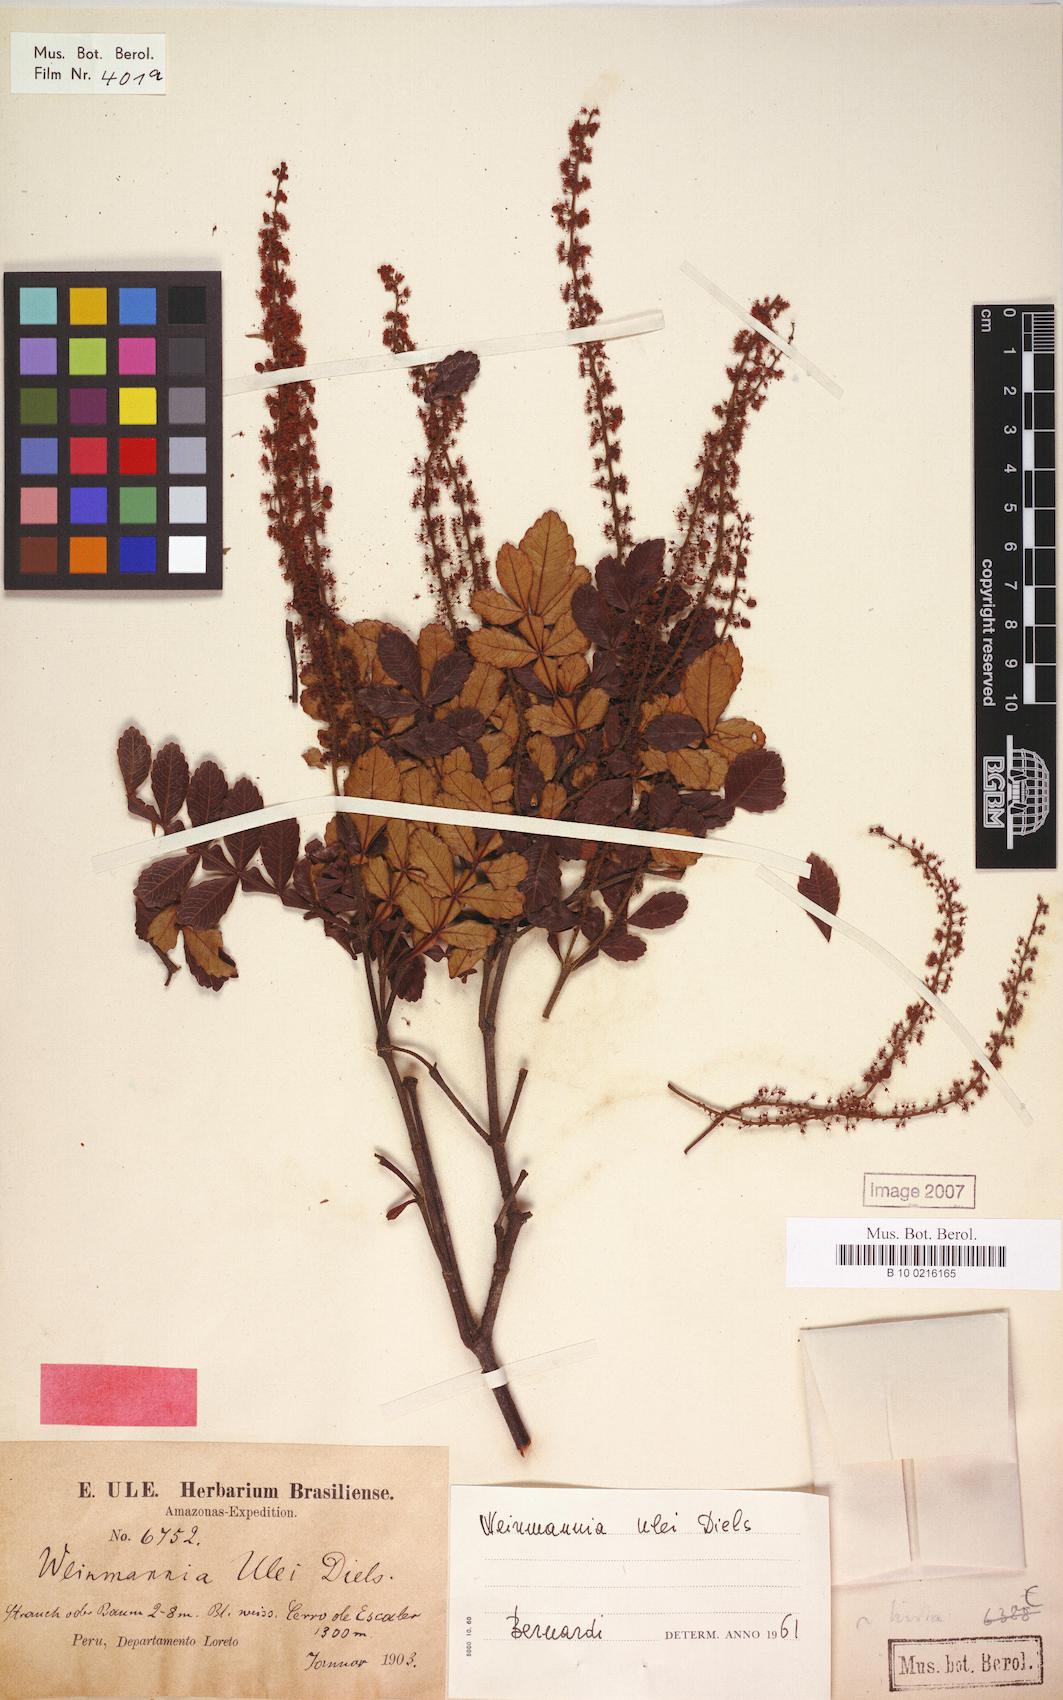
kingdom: Plantae
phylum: Tracheophyta
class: Magnoliopsida
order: Oxalidales
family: Cunoniaceae
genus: Weinmannia
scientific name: Weinmannia ulei
